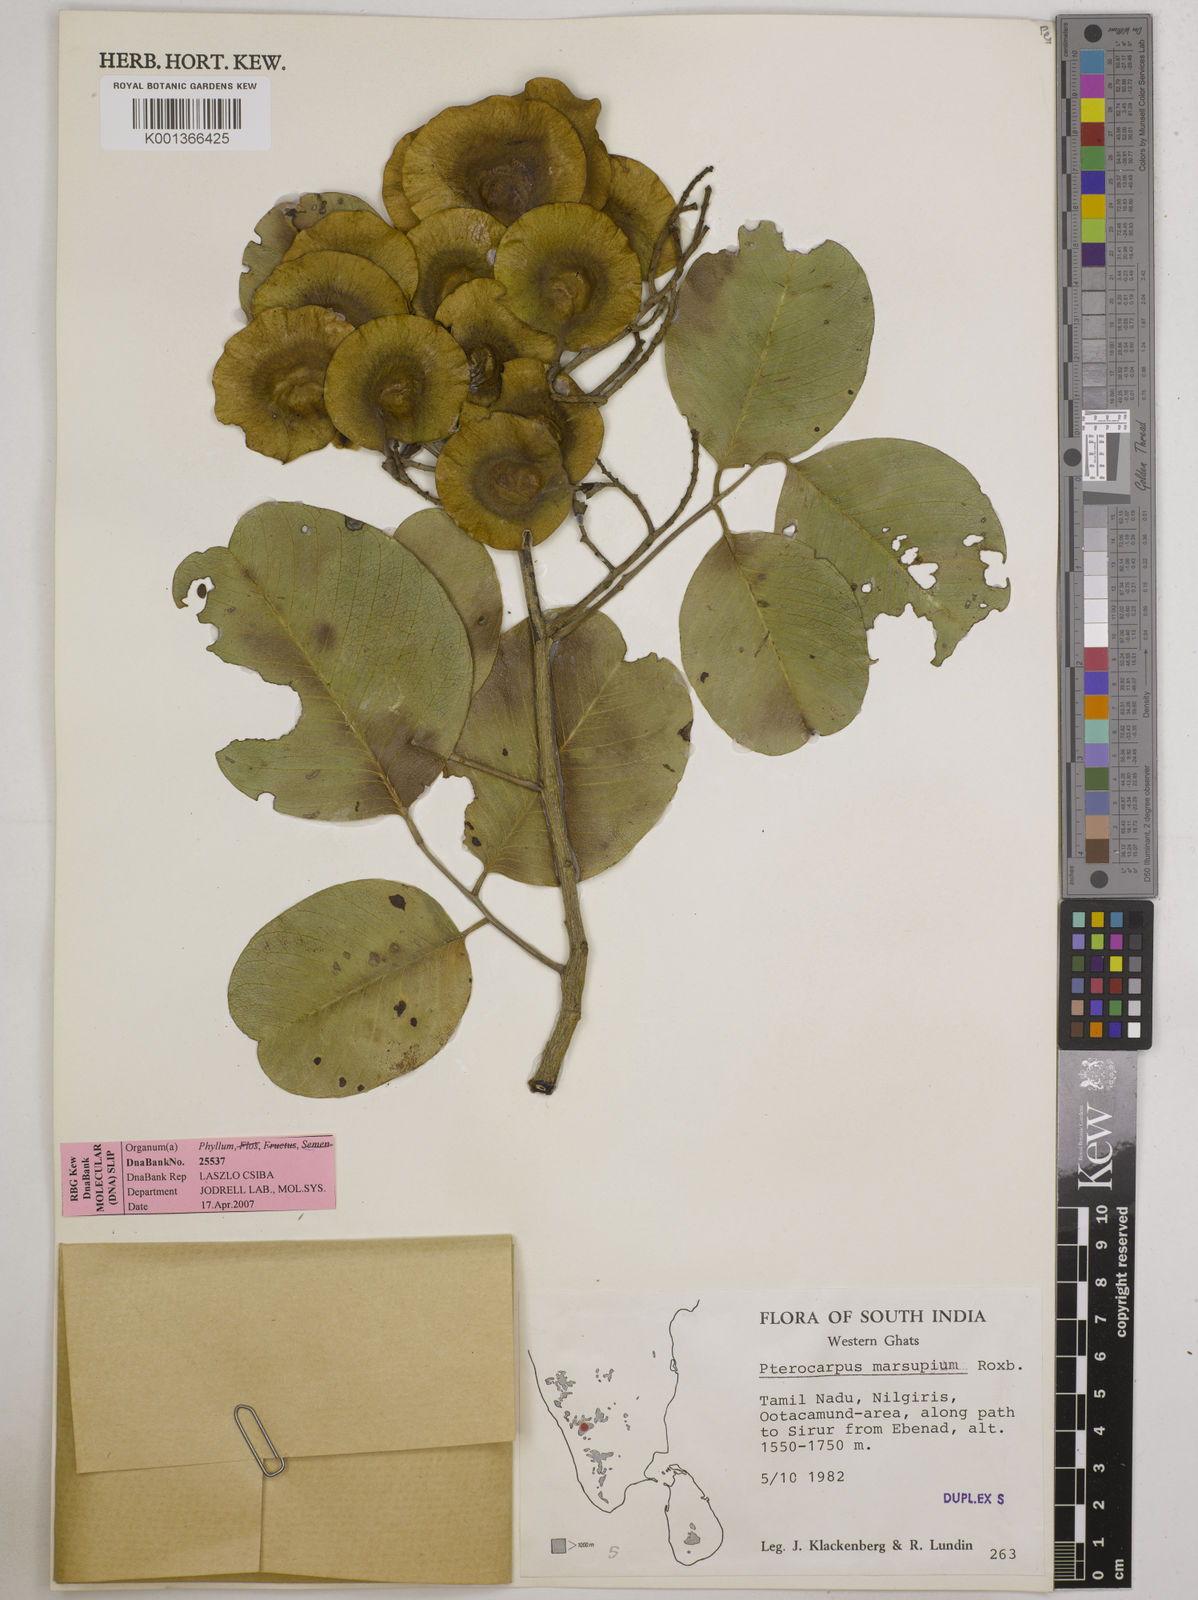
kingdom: Plantae
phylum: Tracheophyta
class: Magnoliopsida
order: Fabales
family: Fabaceae
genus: Pterocarpus
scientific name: Pterocarpus marsupium
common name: East indian/malabar kino
